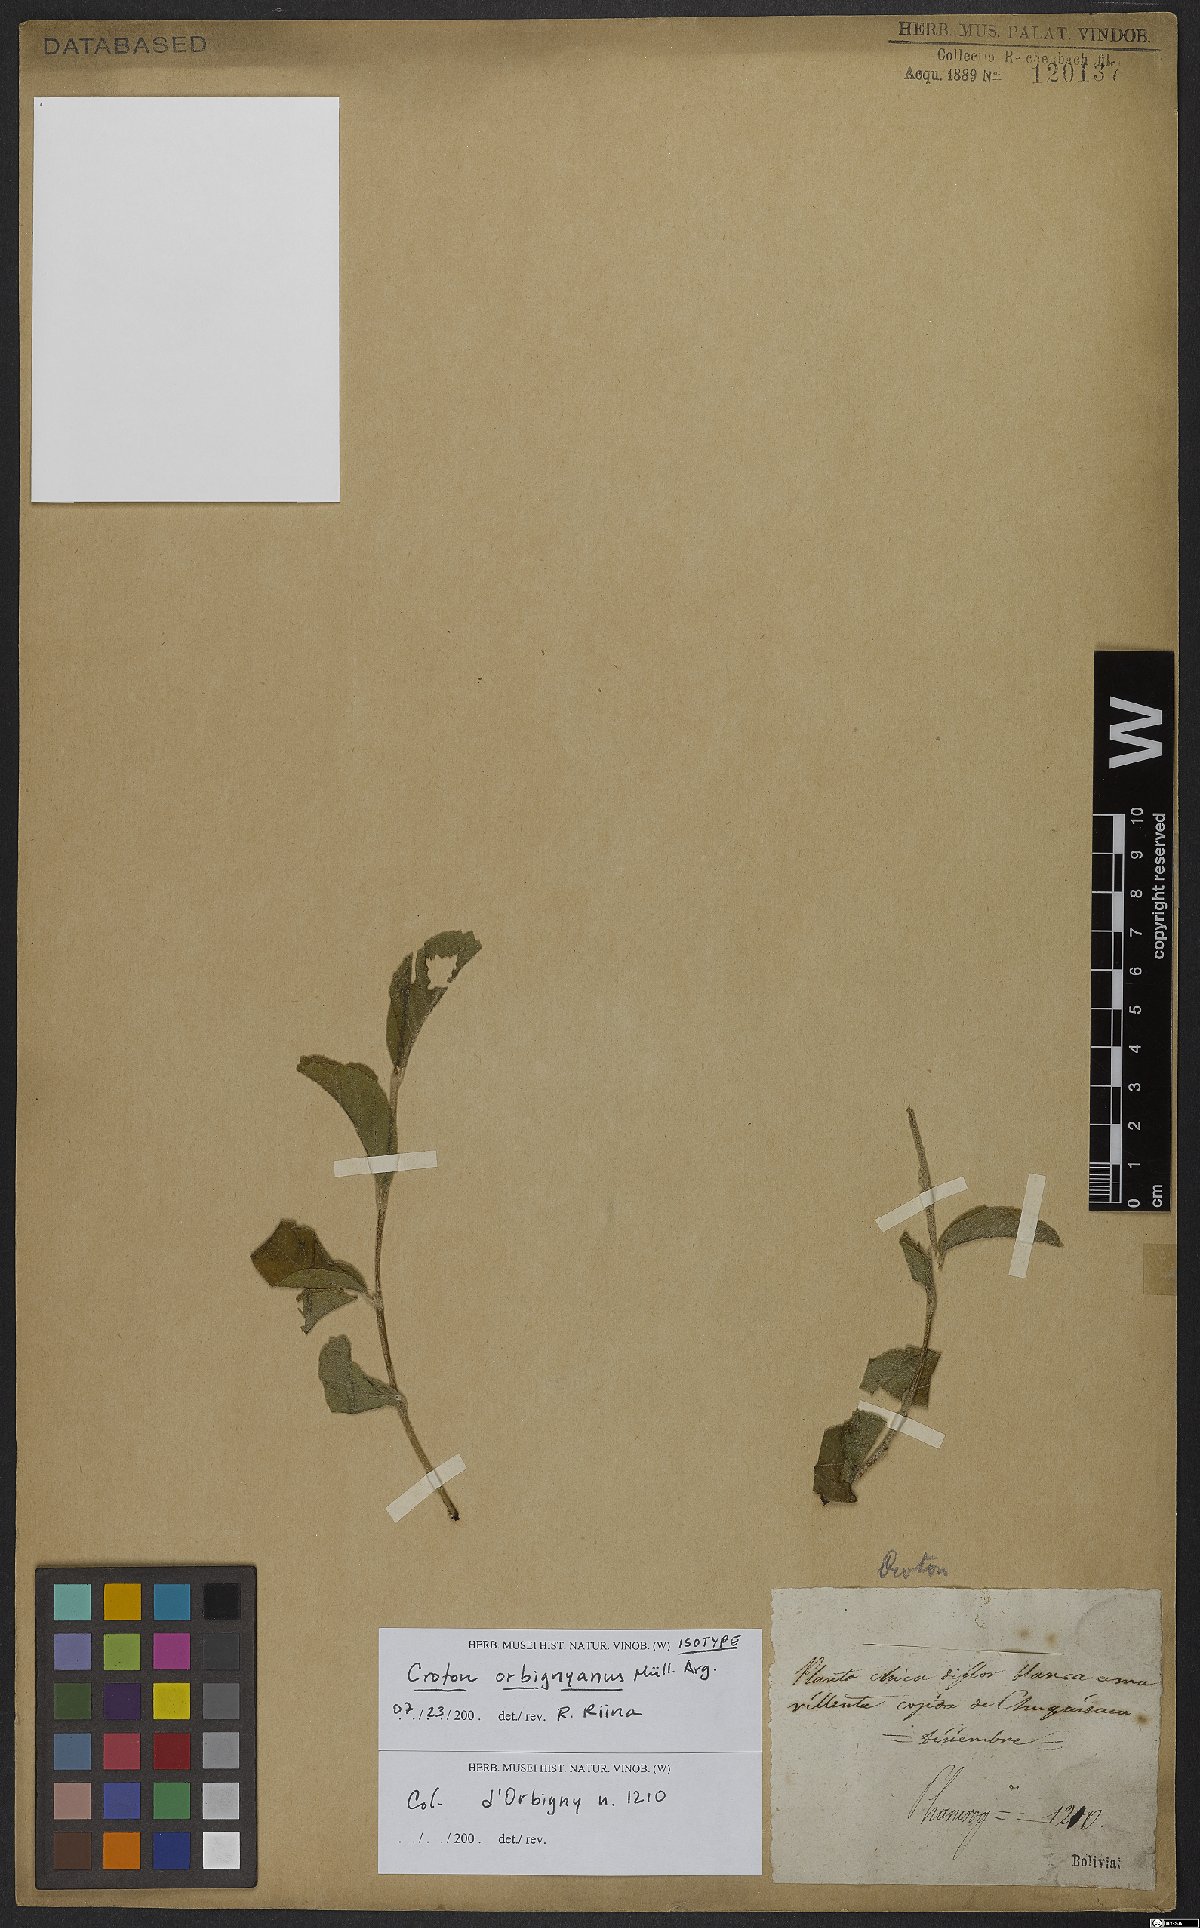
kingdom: Plantae
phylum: Tracheophyta
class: Magnoliopsida
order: Malpighiales
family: Euphorbiaceae
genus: Croton
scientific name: Croton orbignyanus
